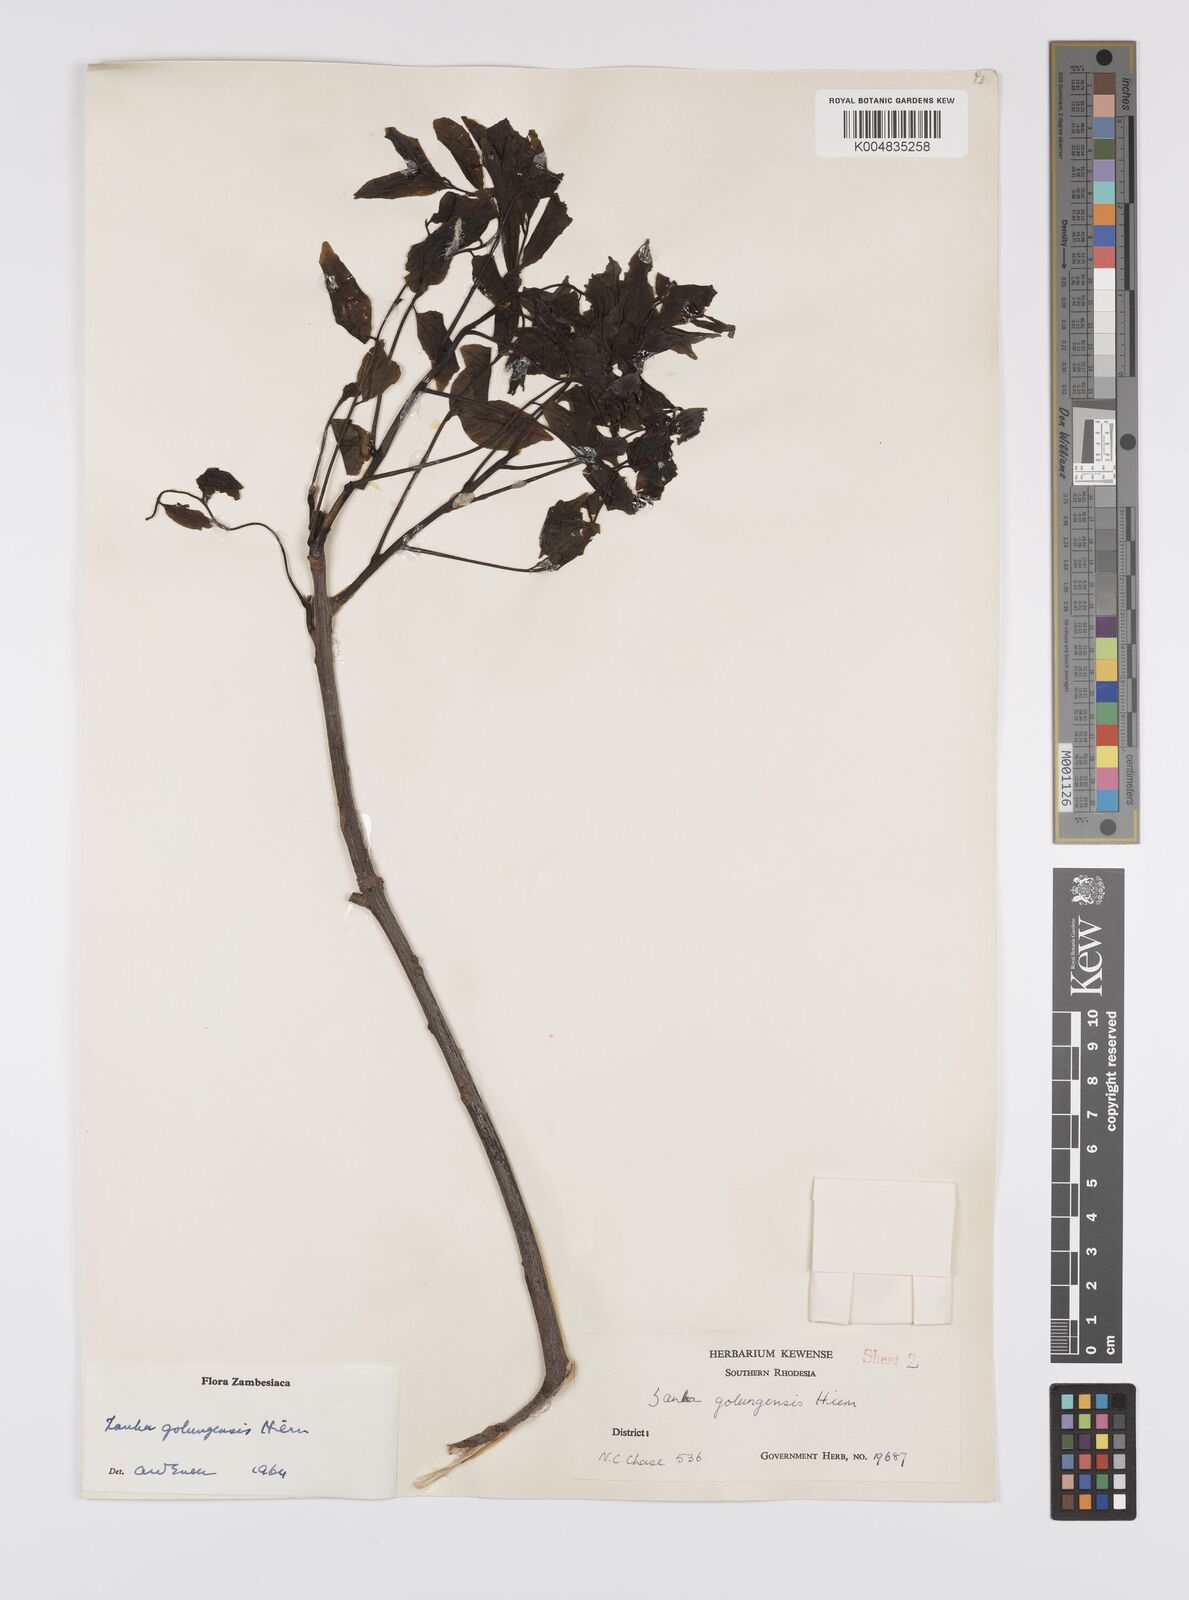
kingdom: Plantae
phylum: Tracheophyta
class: Magnoliopsida
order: Sapindales
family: Sapindaceae
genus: Zanha
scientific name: Zanha golungensis
